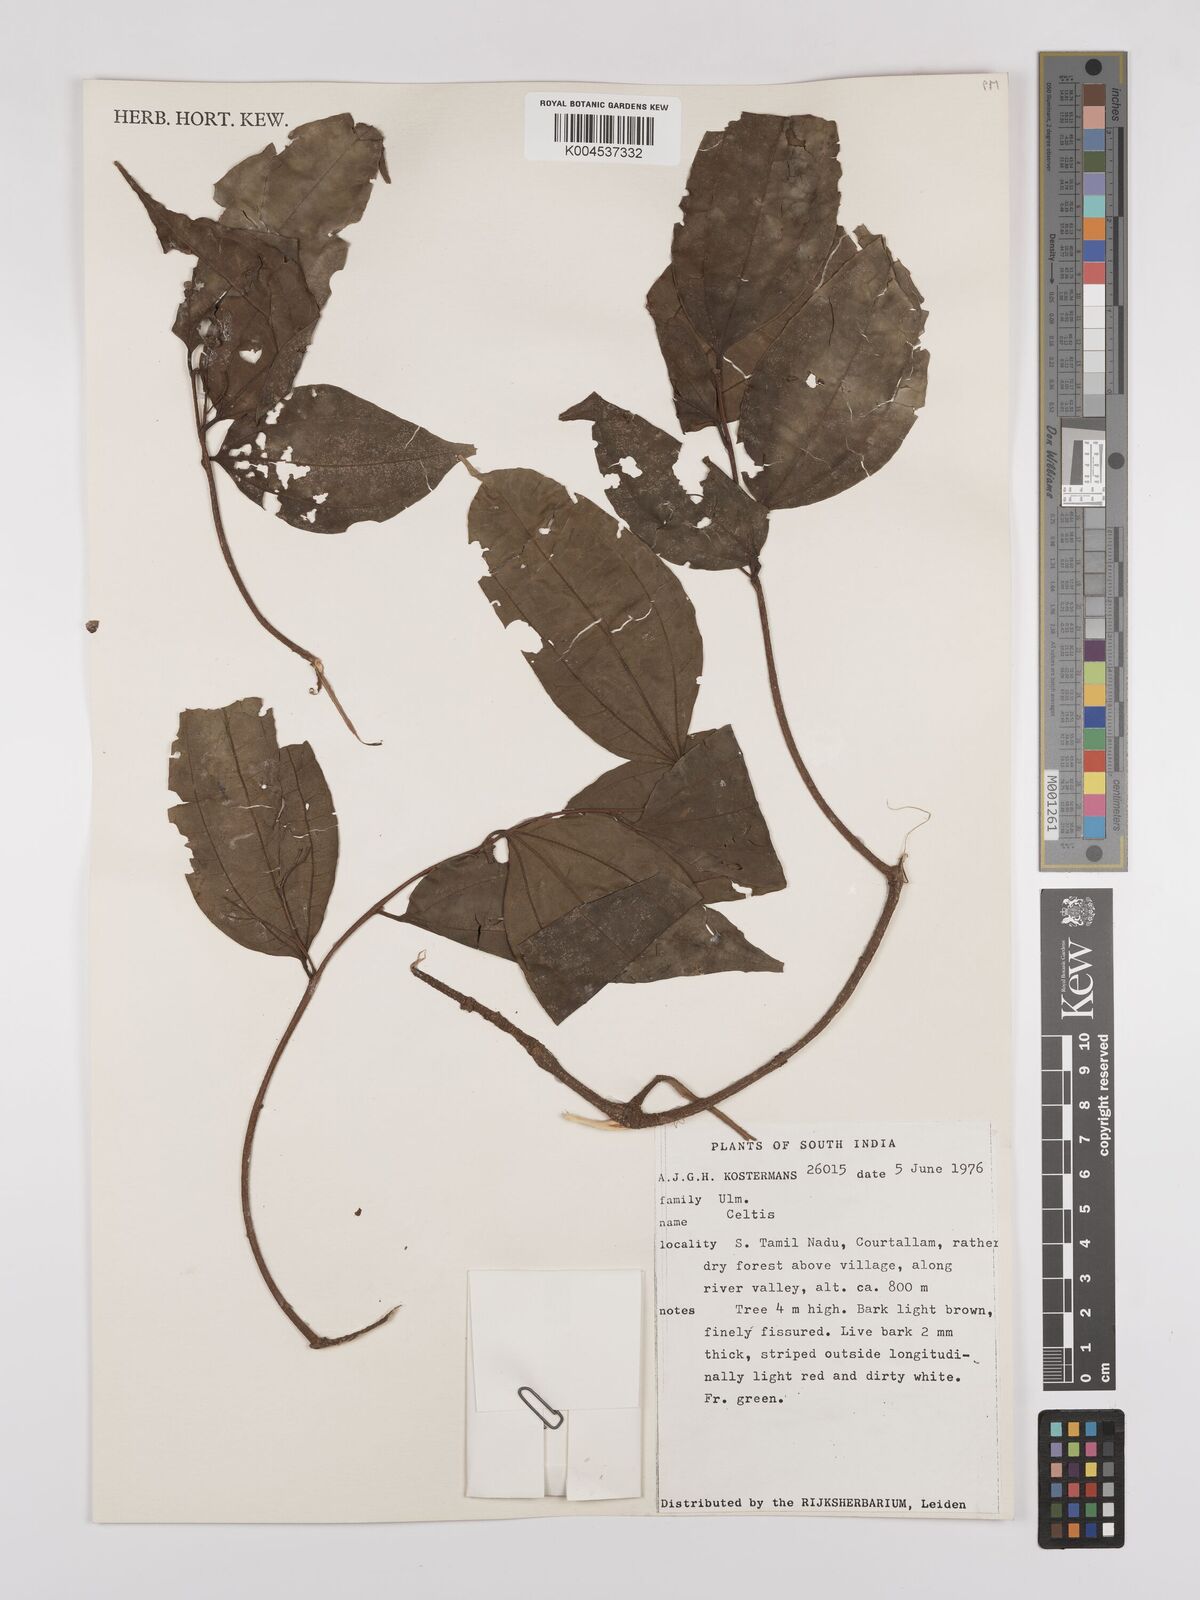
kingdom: Plantae
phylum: Tracheophyta
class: Magnoliopsida
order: Rosales
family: Cannabaceae
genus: Celtis
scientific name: Celtis
